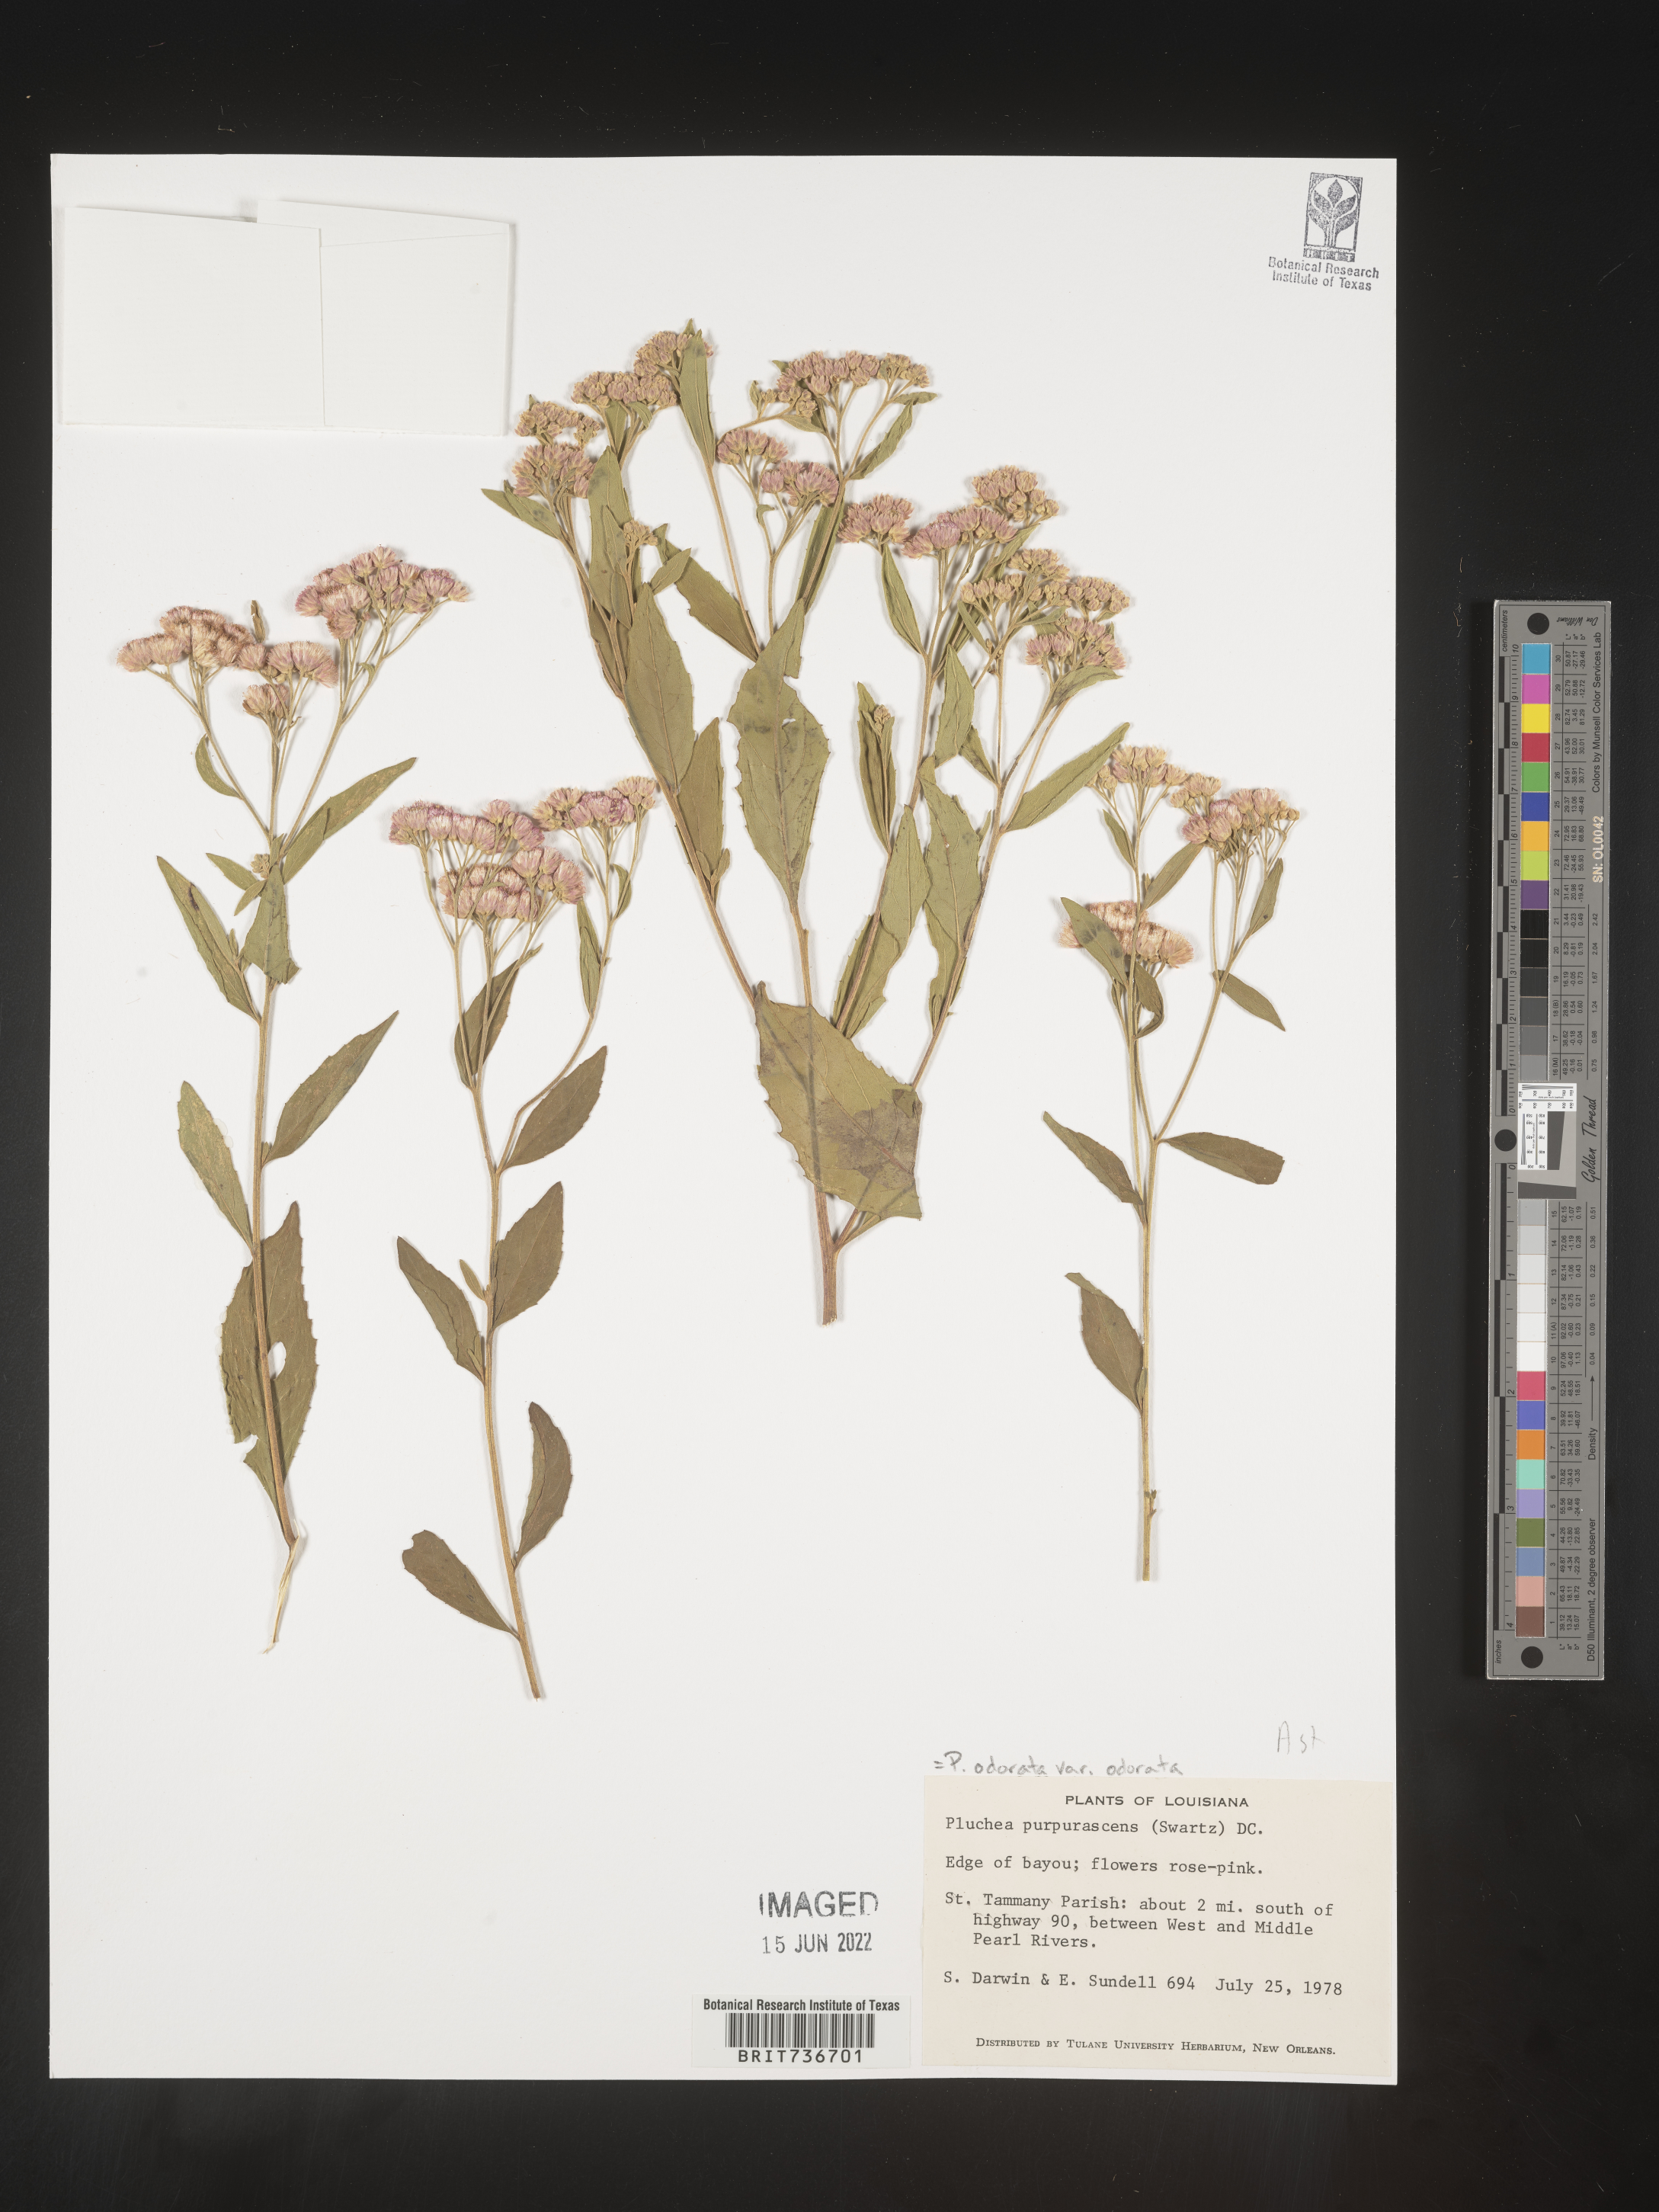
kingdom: Plantae
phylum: Tracheophyta
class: Magnoliopsida
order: Asterales
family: Asteraceae
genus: Pluchea
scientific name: Pluchea odorata
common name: Saltmarsh fleabane
